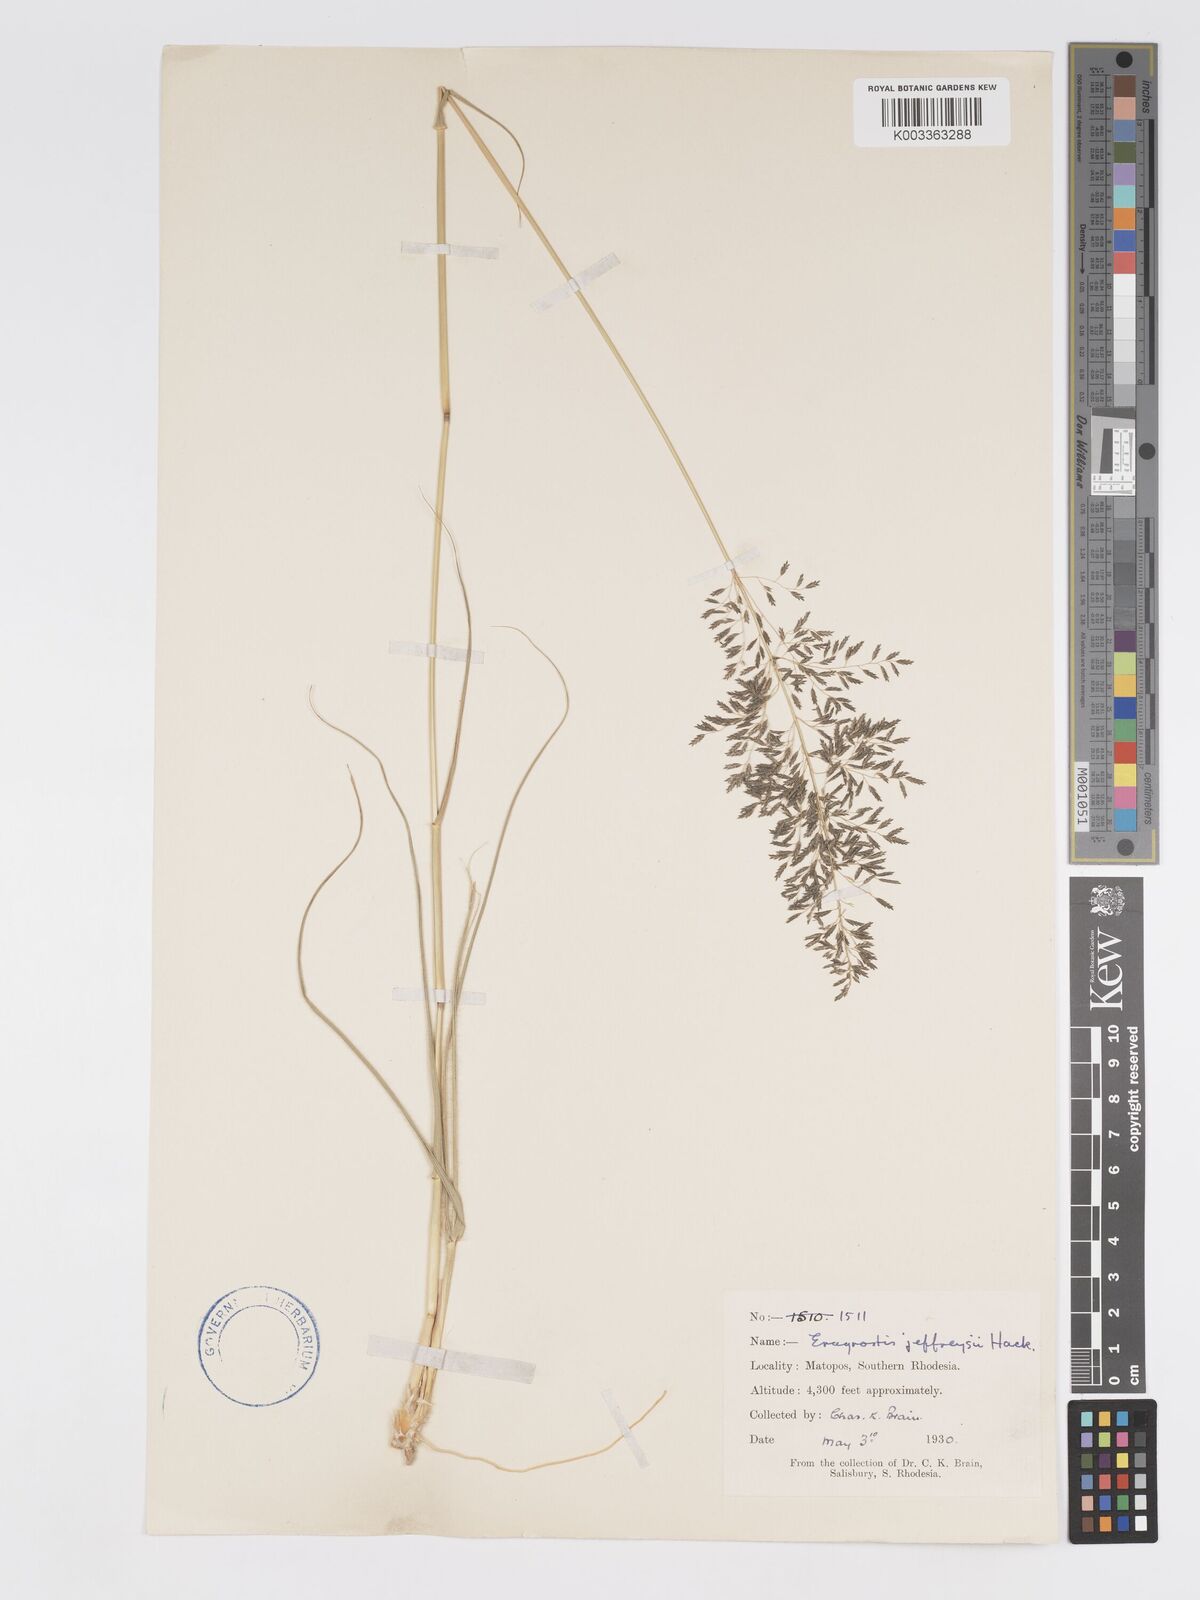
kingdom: Plantae
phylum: Tracheophyta
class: Liliopsida
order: Poales
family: Poaceae
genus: Eragrostis
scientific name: Eragrostis curvula
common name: African love-grass
